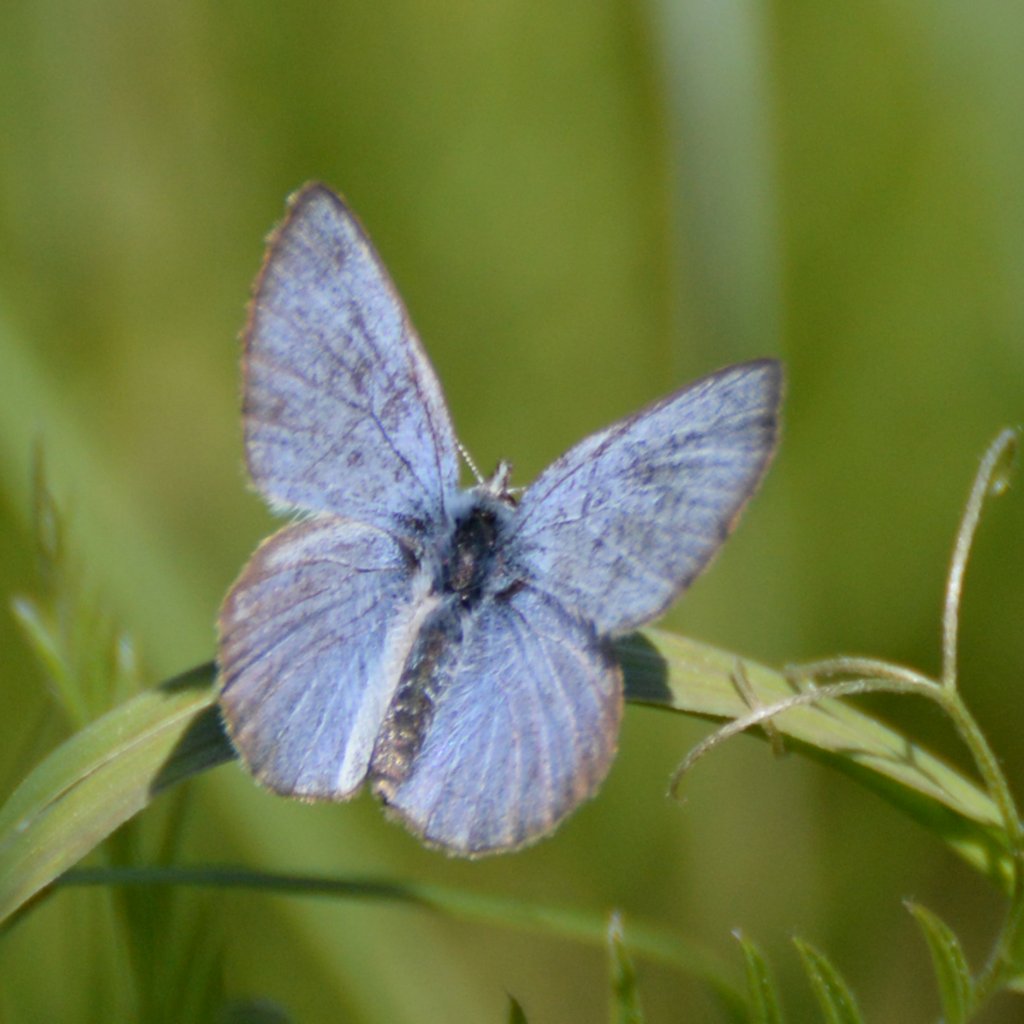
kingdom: Animalia
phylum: Arthropoda
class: Insecta
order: Lepidoptera
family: Lycaenidae
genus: Glaucopsyche
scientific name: Glaucopsyche lygdamus
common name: Silvery Blue
